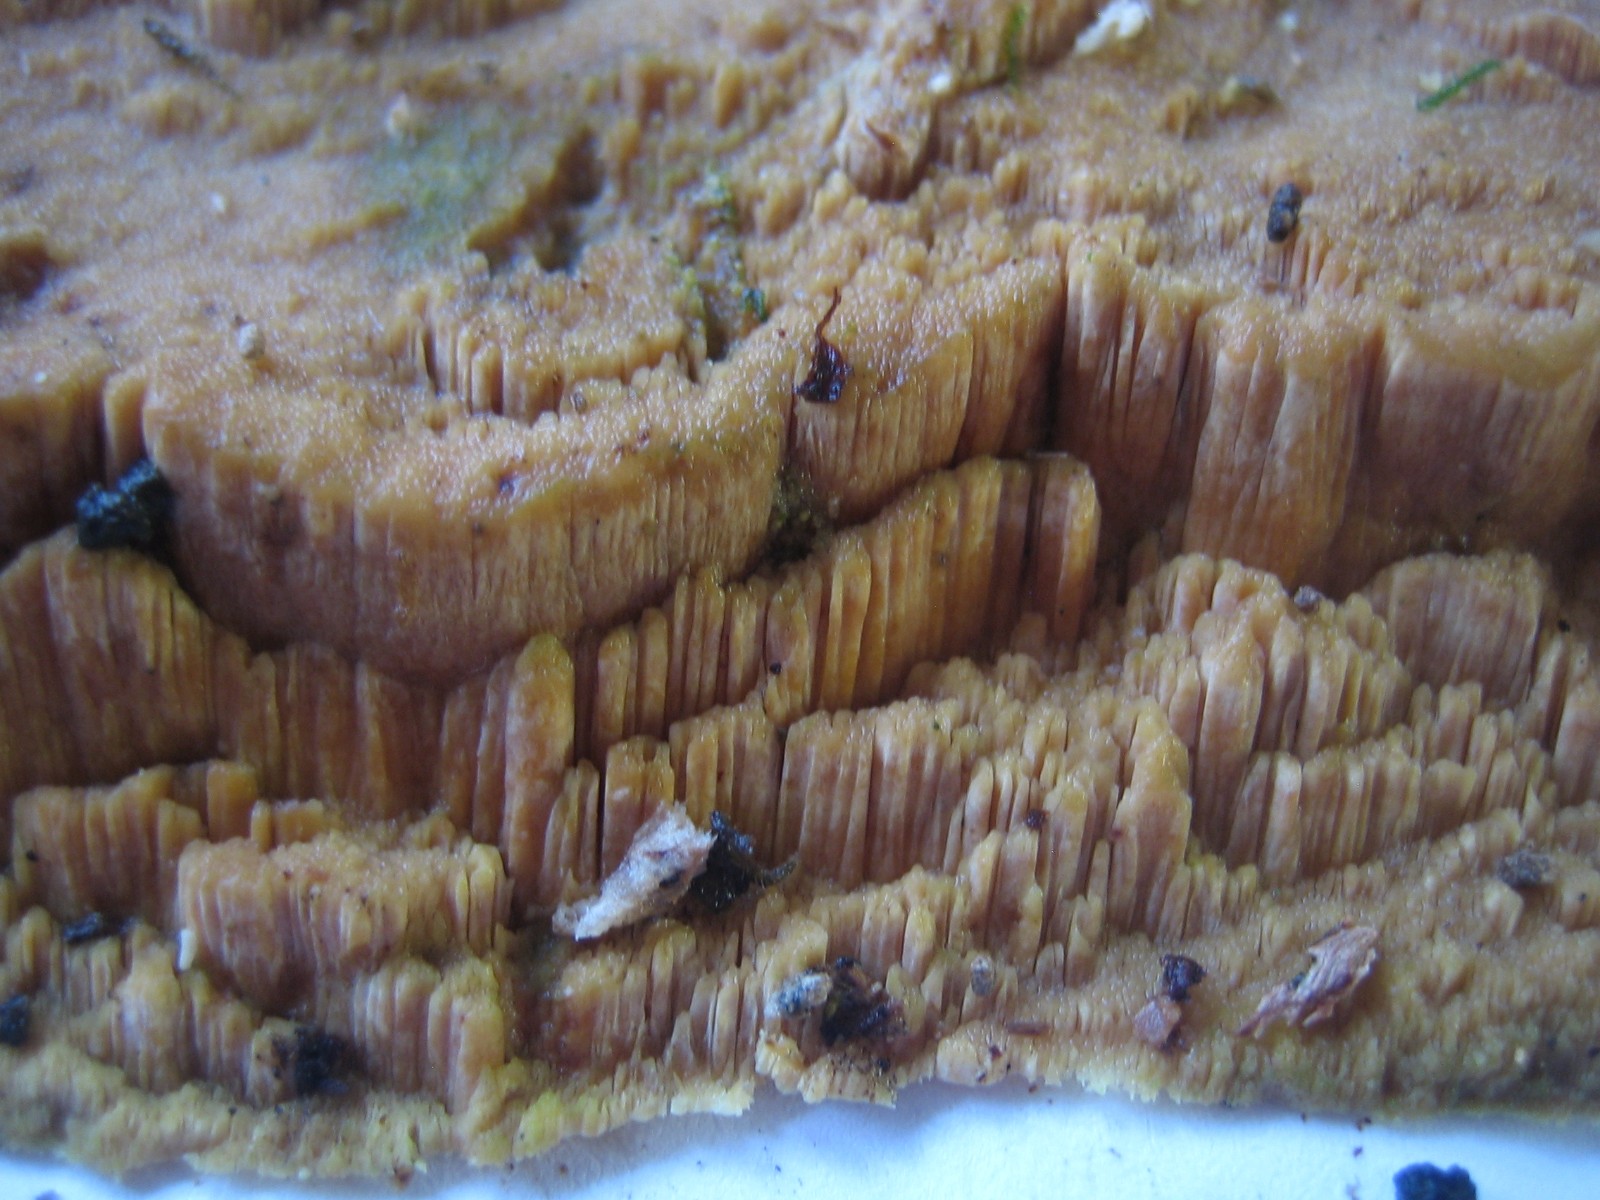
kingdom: Fungi
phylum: Basidiomycota
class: Agaricomycetes
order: Hymenochaetales
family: Schizoporaceae
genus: Xylodon
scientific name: Xylodon flaviporus
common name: gulporet tandsvamp
